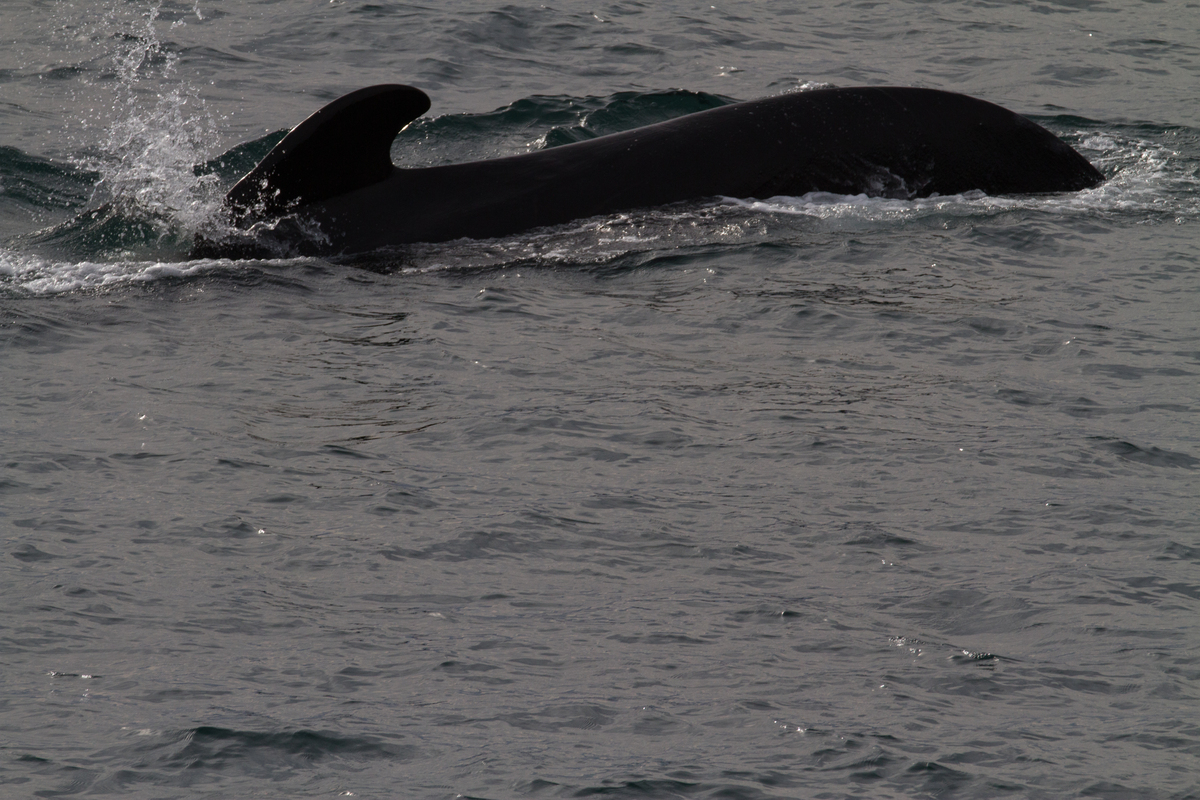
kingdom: Animalia
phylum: Chordata
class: Mammalia
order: Cetacea
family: Delphinidae
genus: Globicephala
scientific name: Globicephala melas
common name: Long-finned pilot whale
